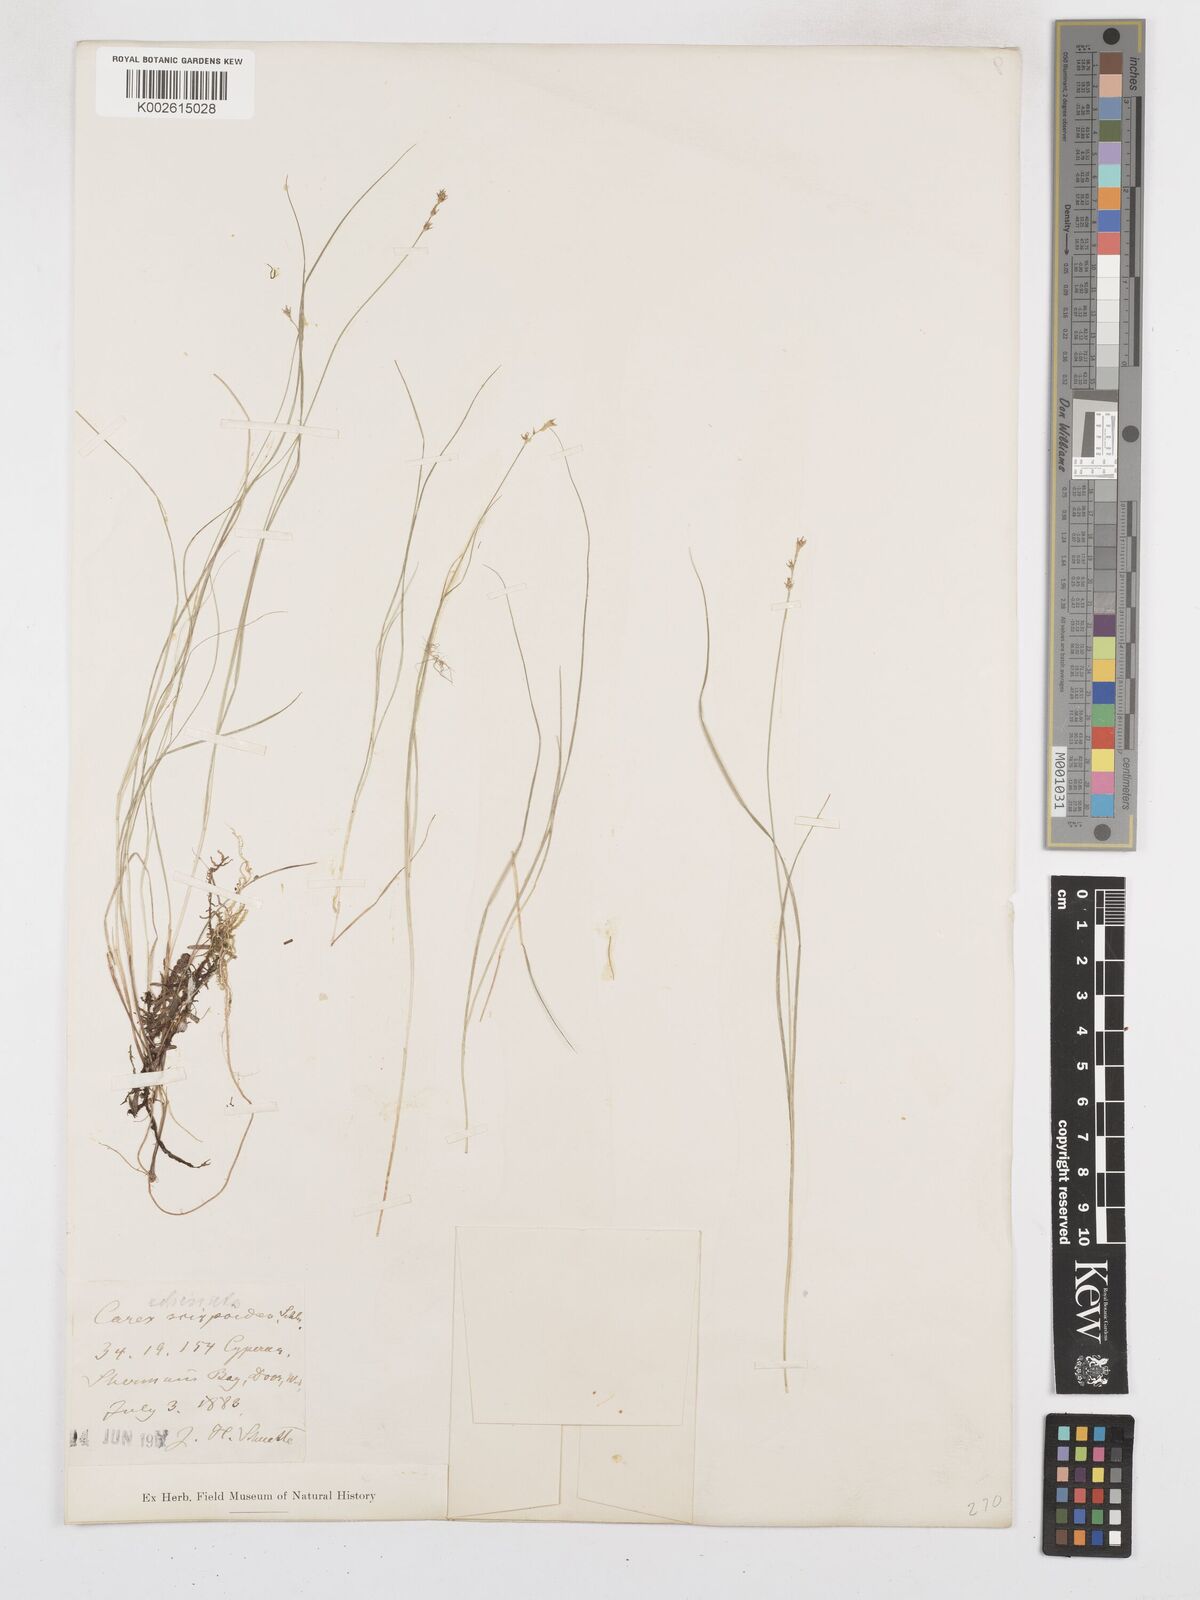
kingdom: Plantae
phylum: Tracheophyta
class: Liliopsida
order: Poales
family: Cyperaceae
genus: Carex
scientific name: Carex interior
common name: Inland sedge
